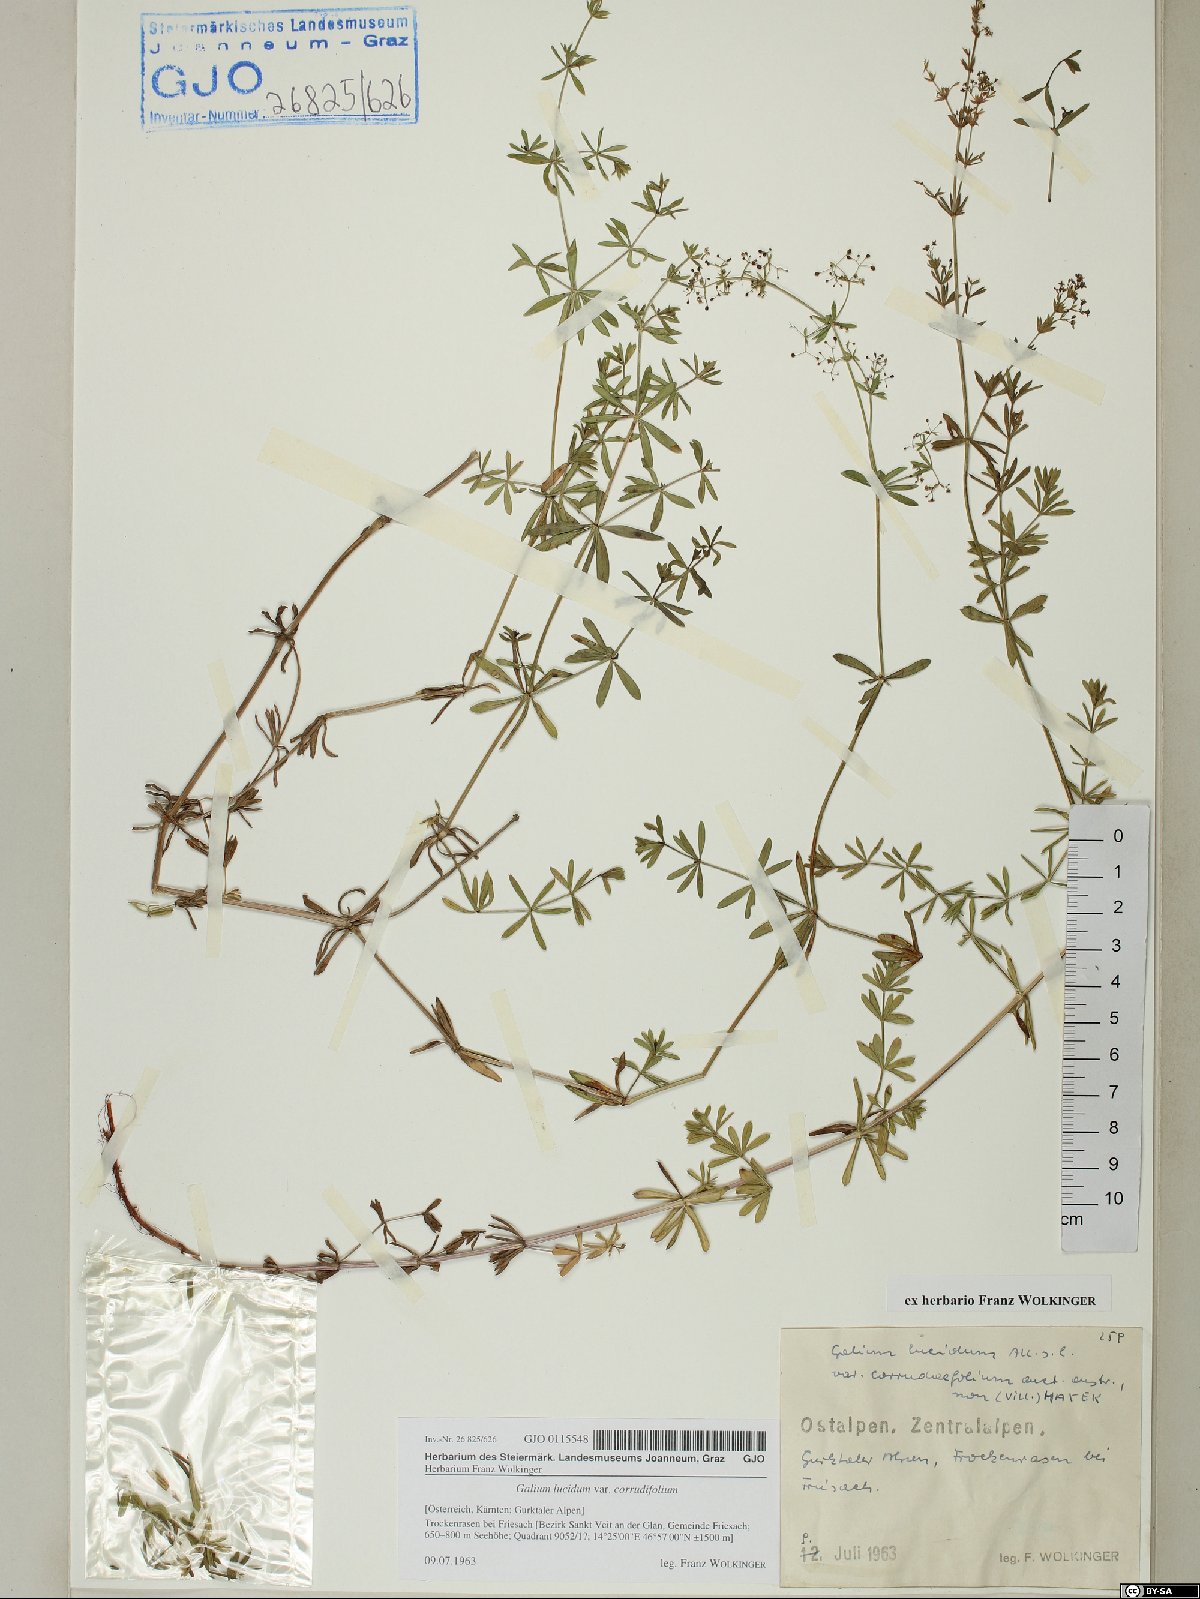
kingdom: Plantae
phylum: Tracheophyta
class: Magnoliopsida
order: Gentianales
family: Rubiaceae
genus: Galium
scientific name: Galium lucidum
